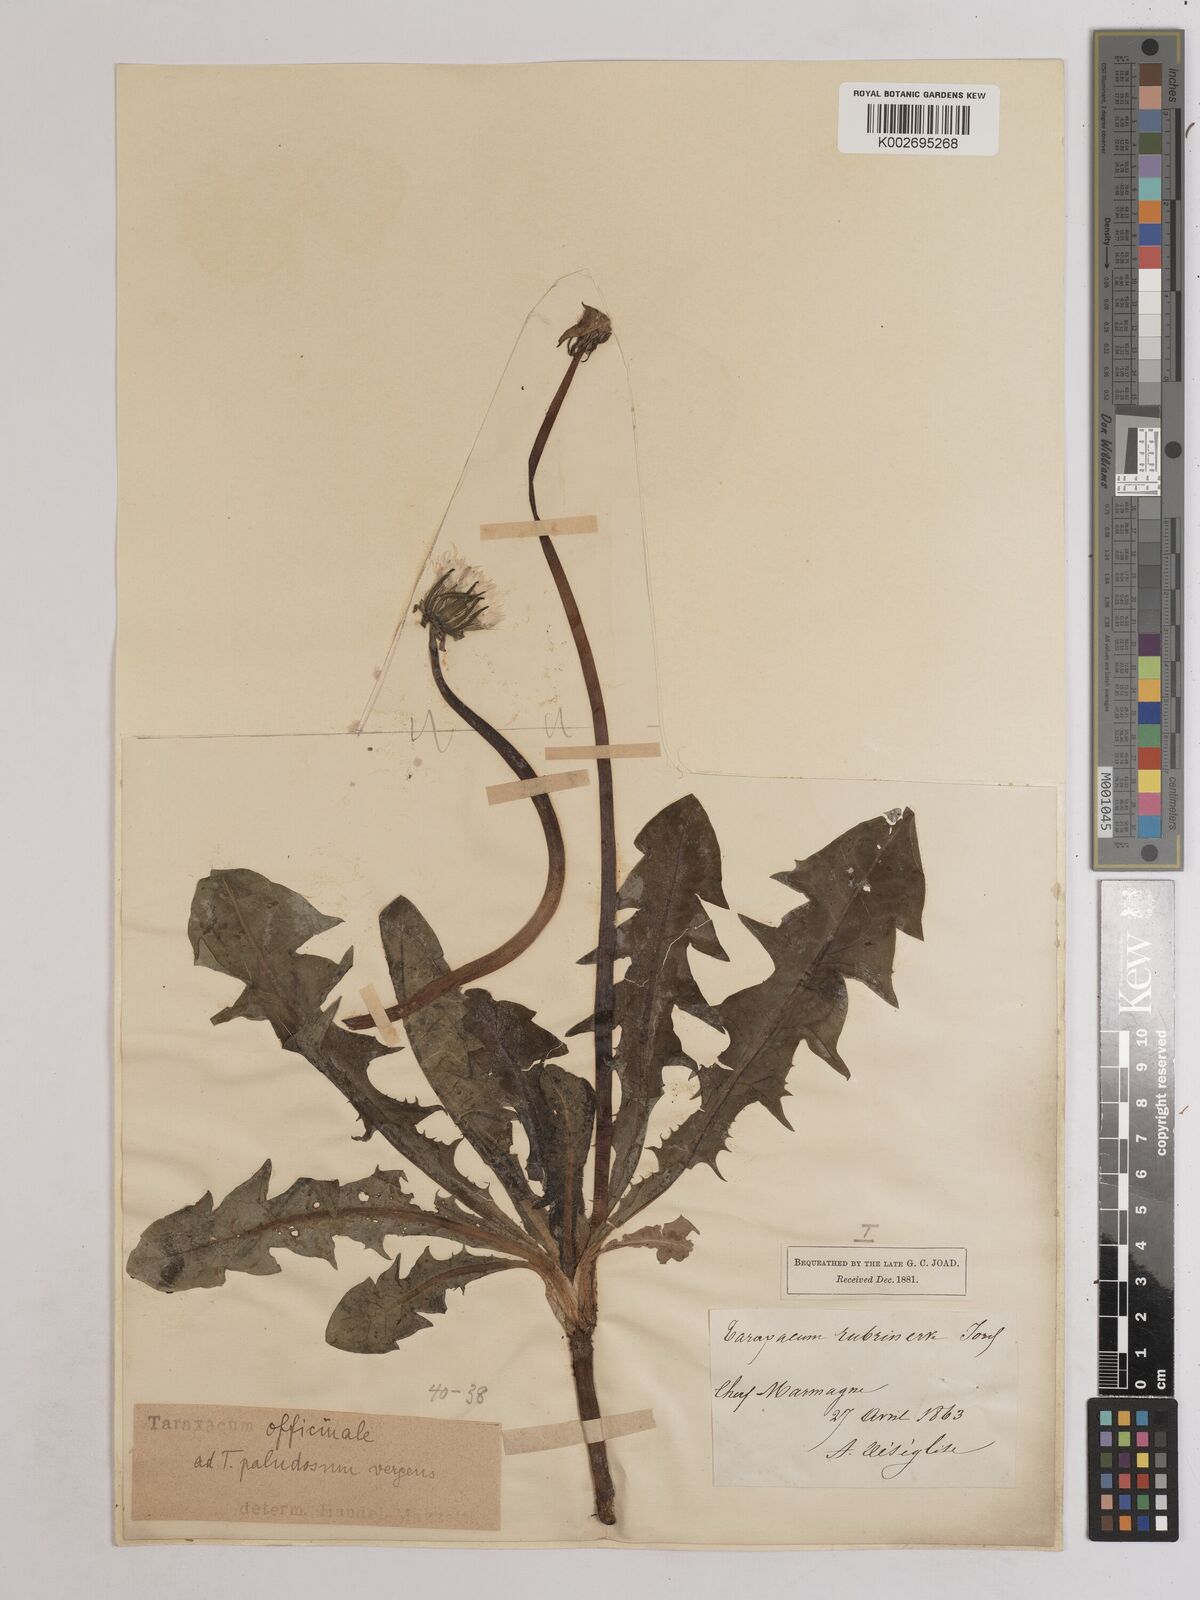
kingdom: Plantae
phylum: Tracheophyta
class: Magnoliopsida
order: Asterales
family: Asteraceae
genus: Taraxacum
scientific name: Taraxacum officinale
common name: Common dandelion
